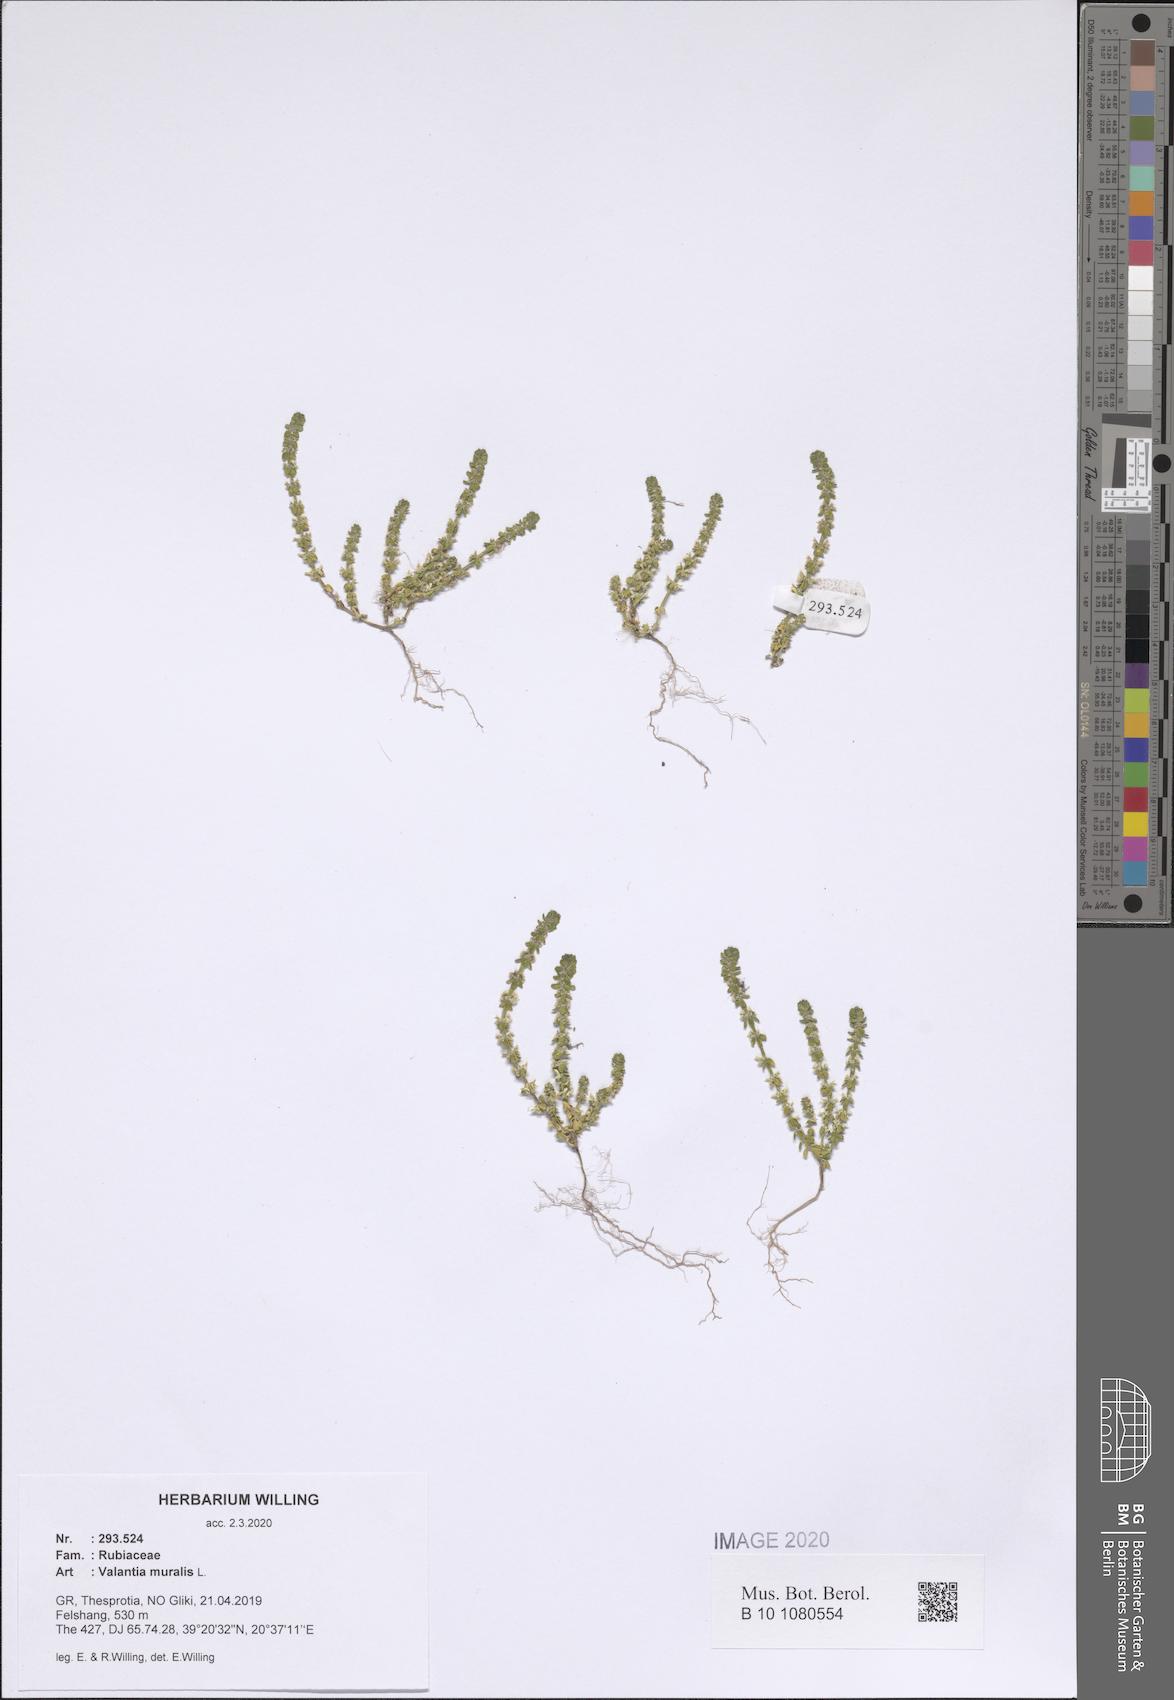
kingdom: Plantae
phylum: Tracheophyta
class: Magnoliopsida
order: Gentianales
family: Rubiaceae
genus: Valantia
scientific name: Valantia muralis
